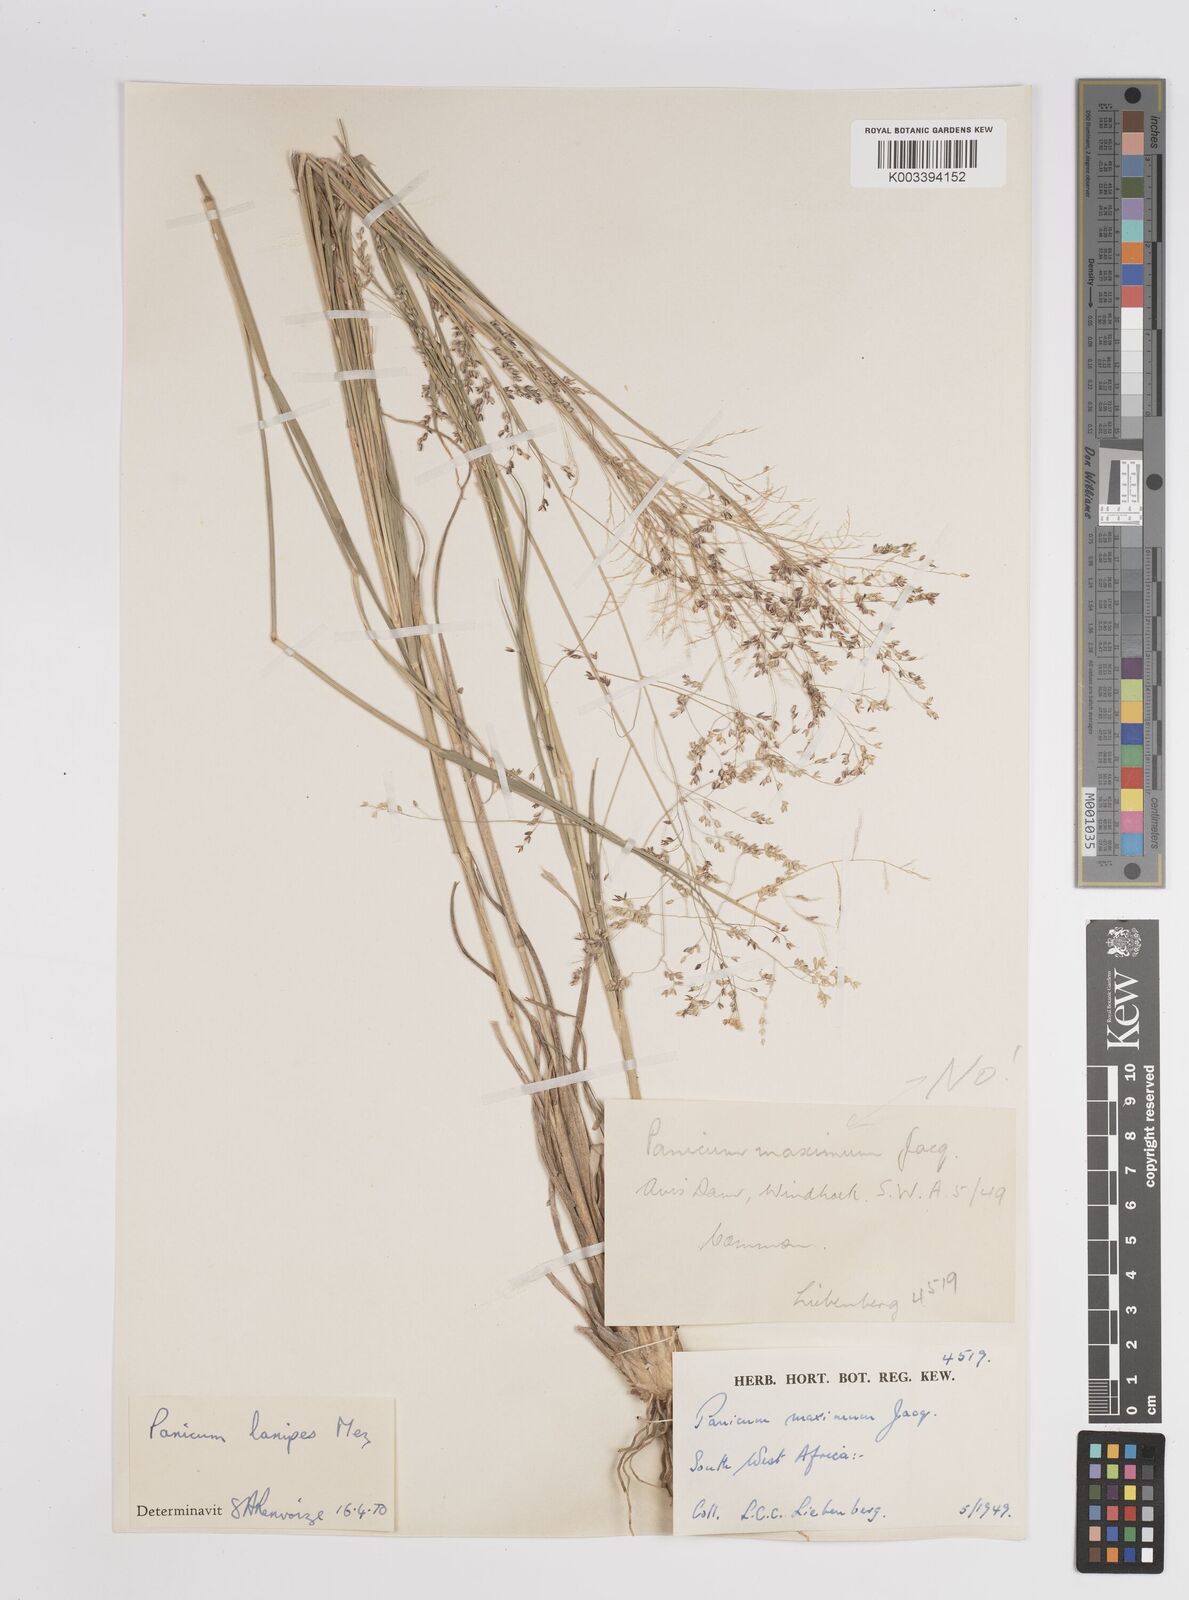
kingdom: Plantae
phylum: Tracheophyta
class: Liliopsida
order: Poales
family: Poaceae
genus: Panicum
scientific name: Panicum lanipes
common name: Wolvoet panicum
